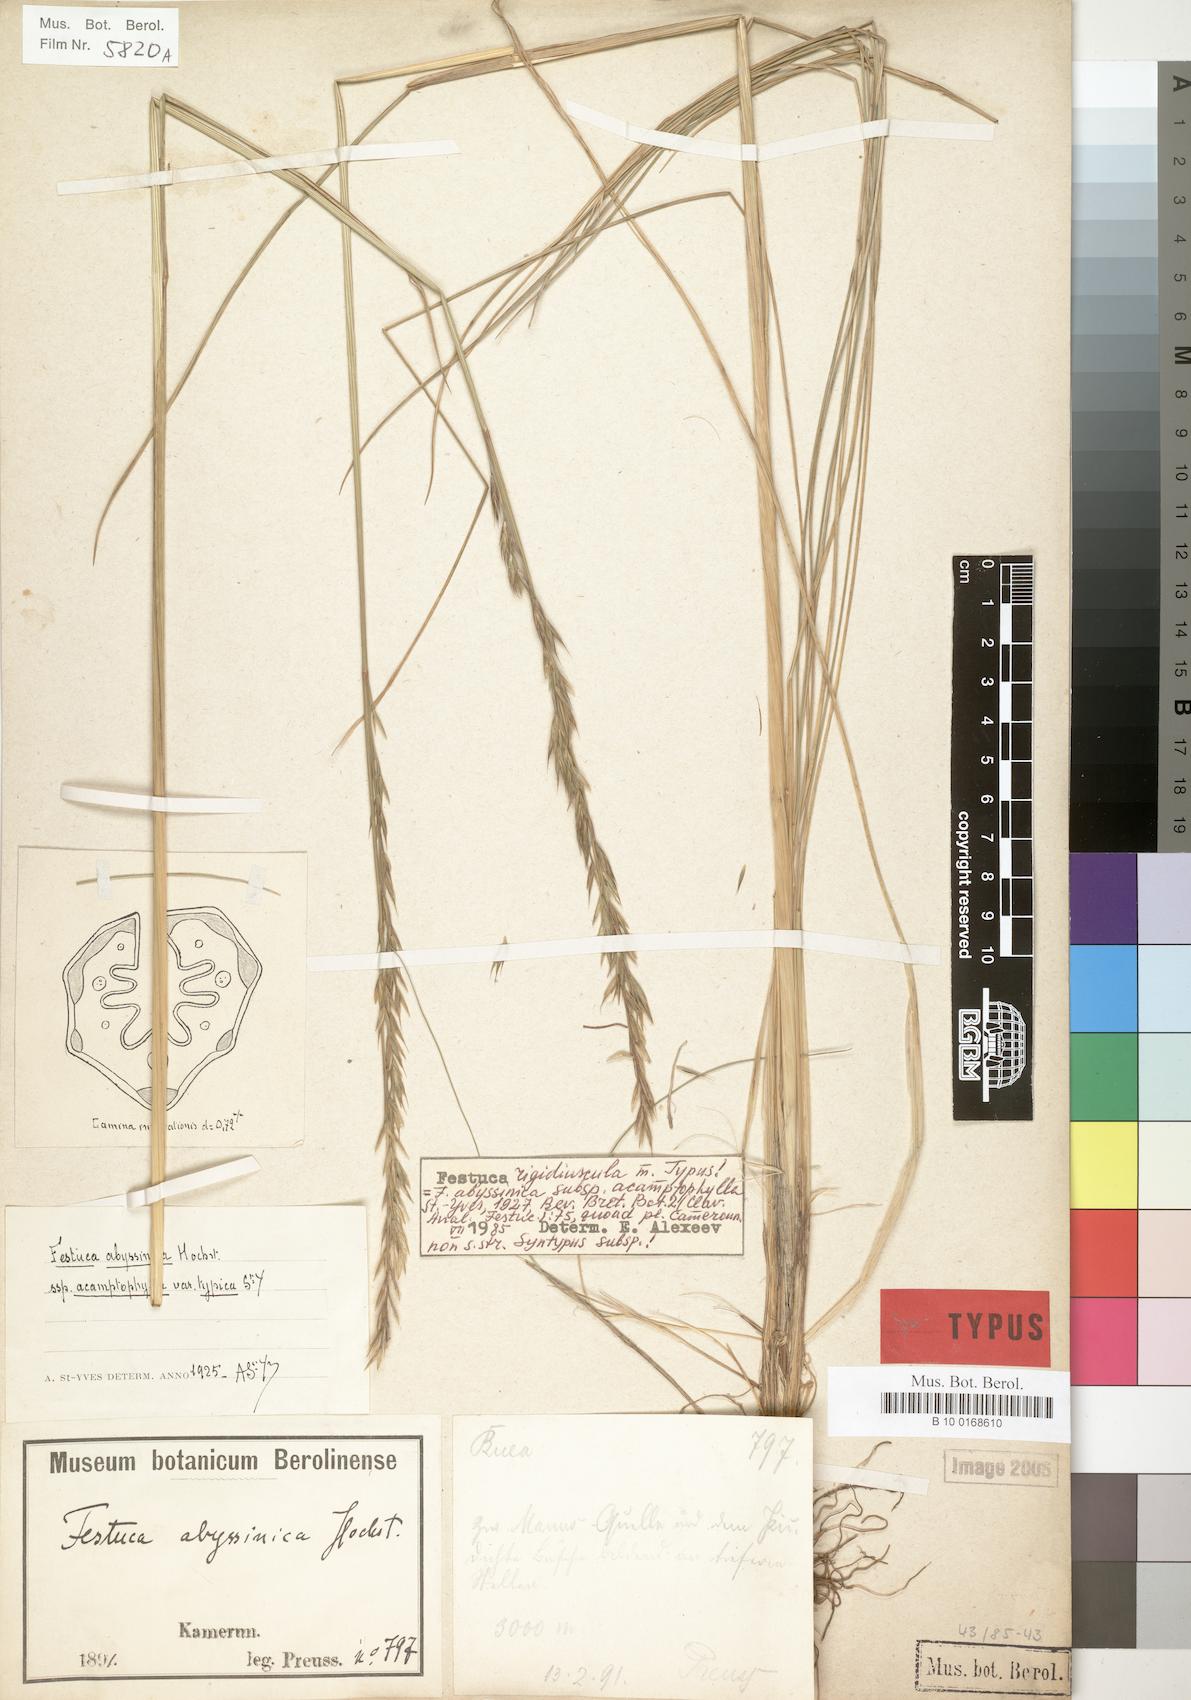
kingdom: Plantae
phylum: Tracheophyta
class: Liliopsida
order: Poales
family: Poaceae
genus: Festuca
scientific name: Festuca rigidiuscula
